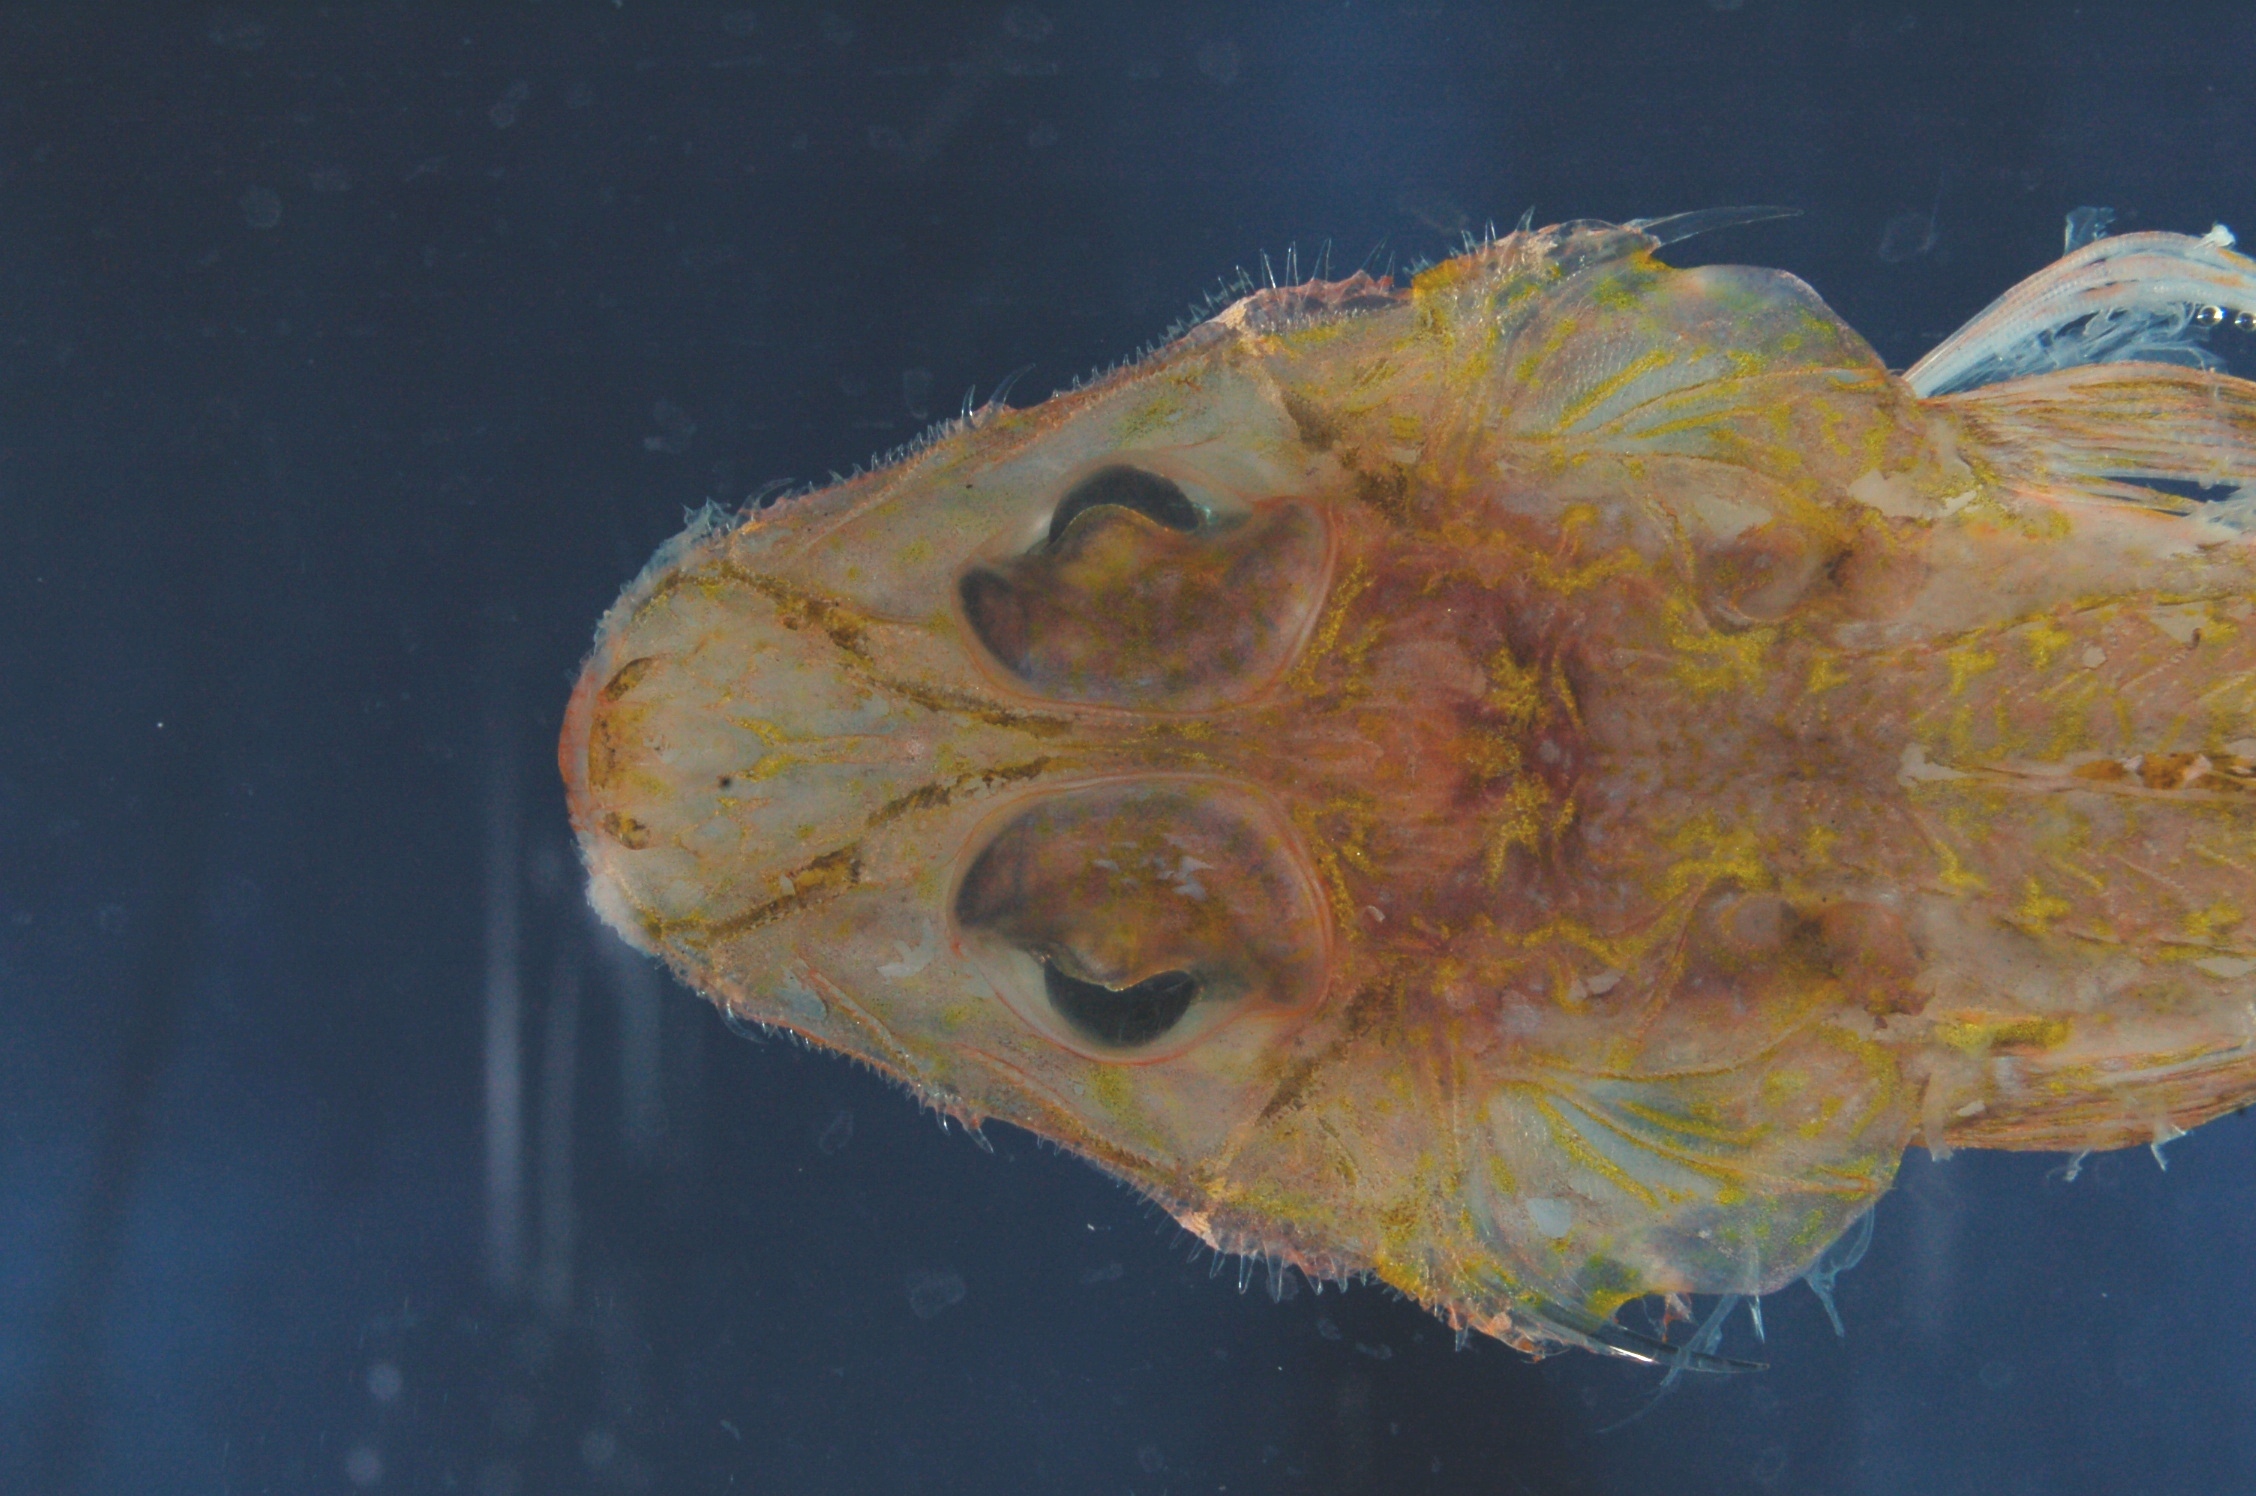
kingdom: Animalia
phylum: Chordata
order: Scorpaeniformes
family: Hoplichthyidae
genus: Hoplichthys
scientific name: Hoplichthys acanthopleurus
